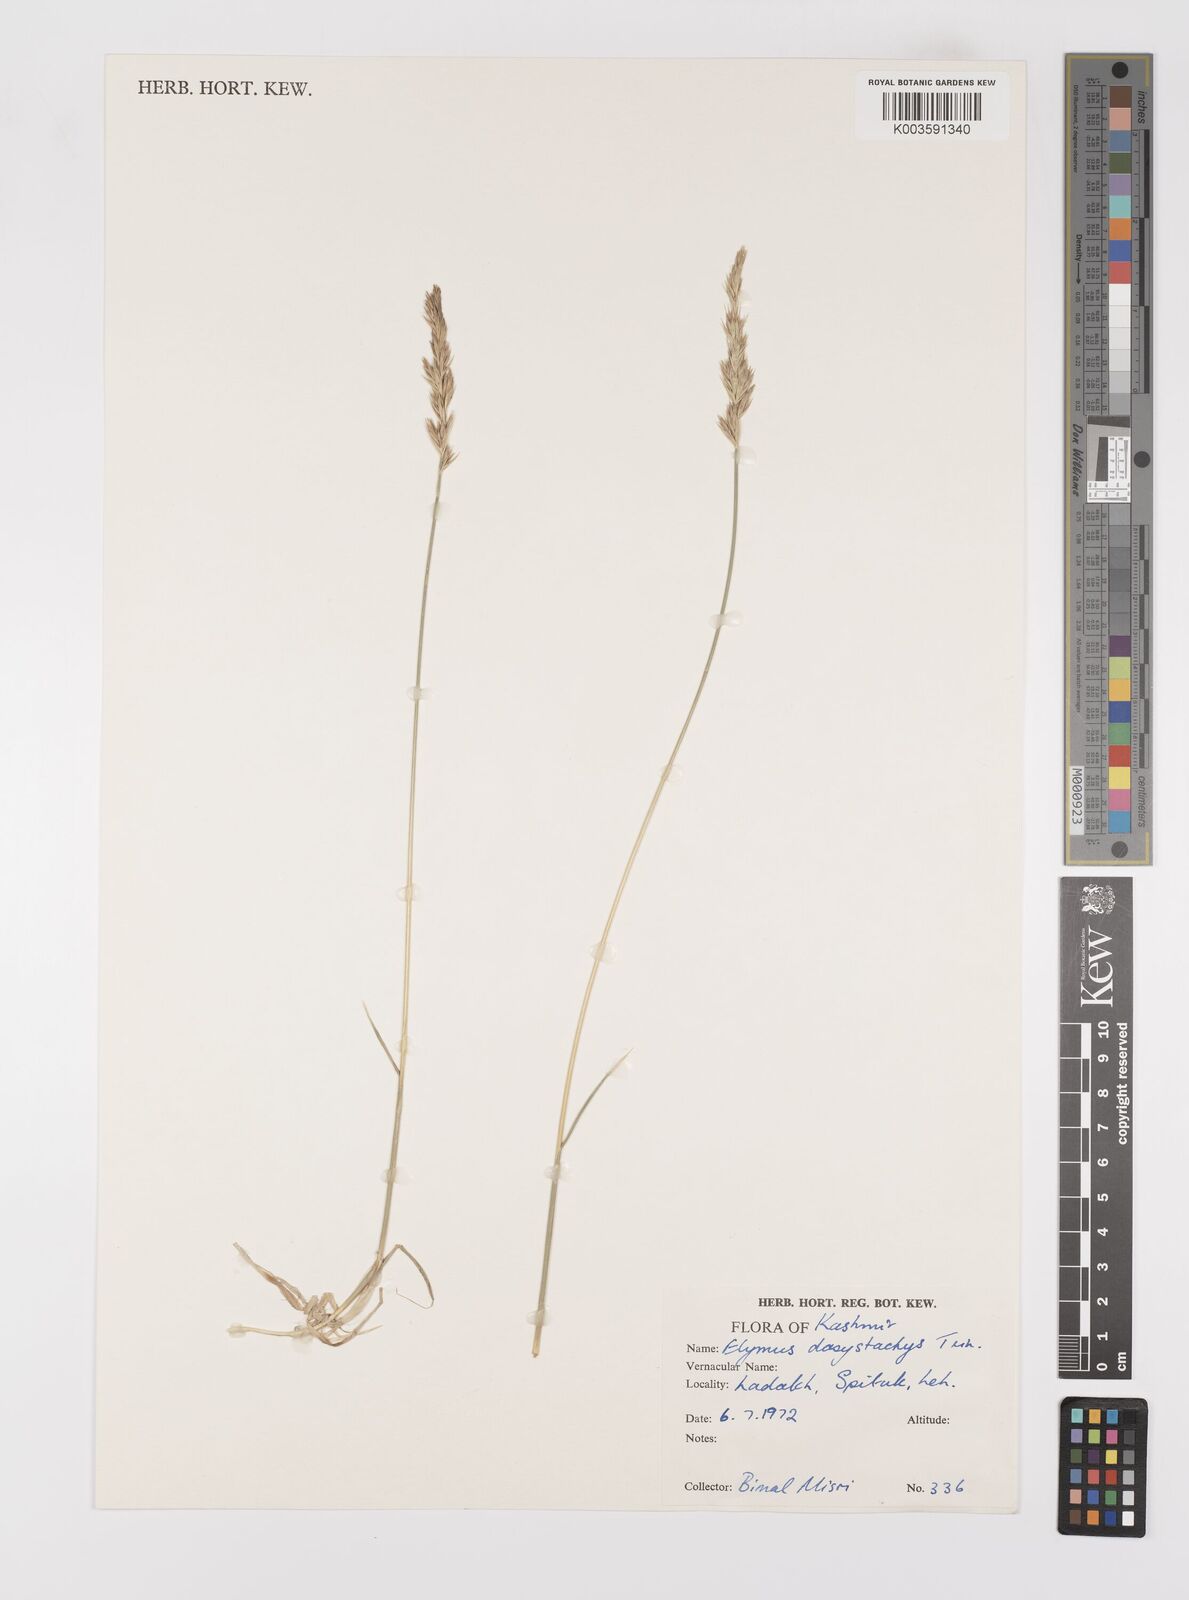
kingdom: Plantae
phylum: Tracheophyta
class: Liliopsida
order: Poales
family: Poaceae
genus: Leymus
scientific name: Leymus secalinus
